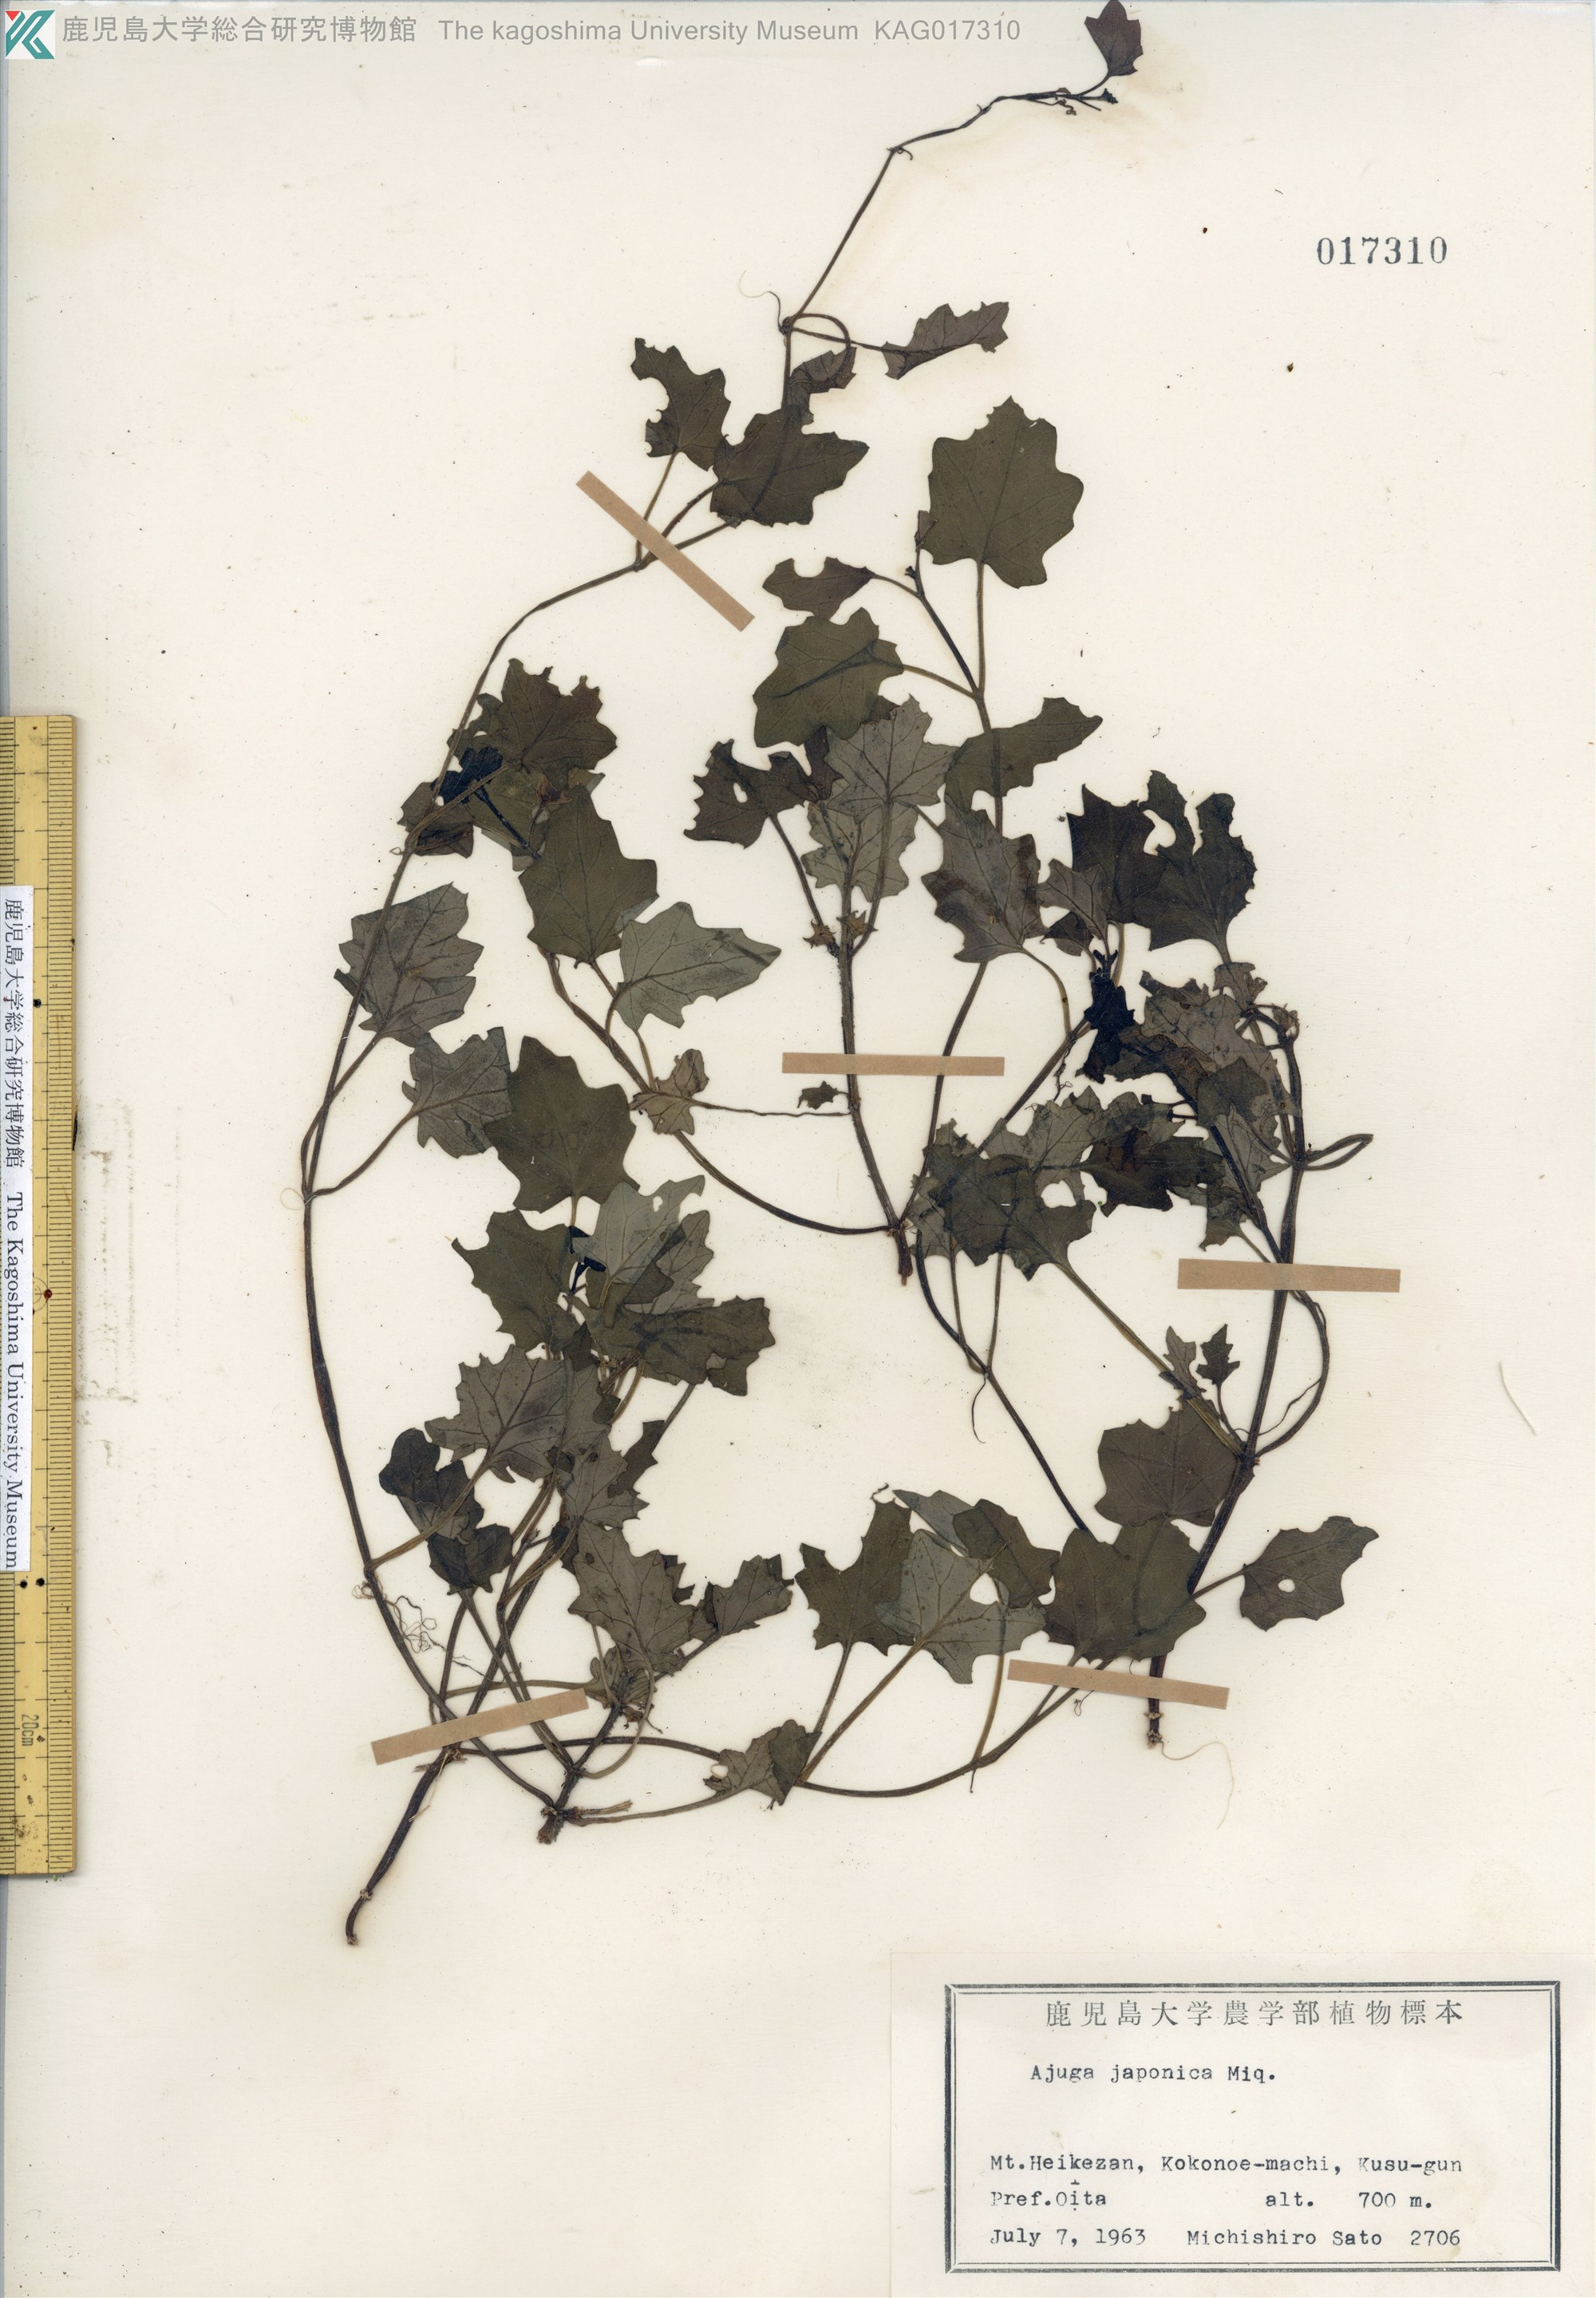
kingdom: Plantae
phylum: Tracheophyta
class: Magnoliopsida
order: Lamiales
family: Lamiaceae
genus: Ajuga
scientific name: Ajuga japonica
